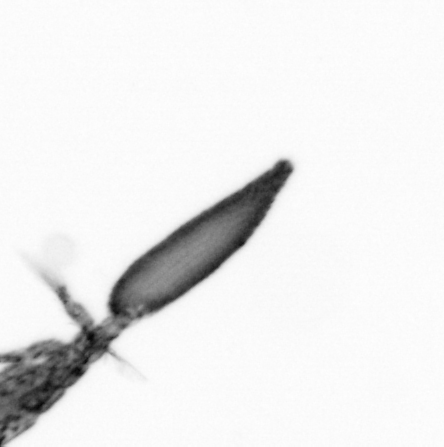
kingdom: Animalia
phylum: Arthropoda
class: Copepoda
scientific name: Copepoda
